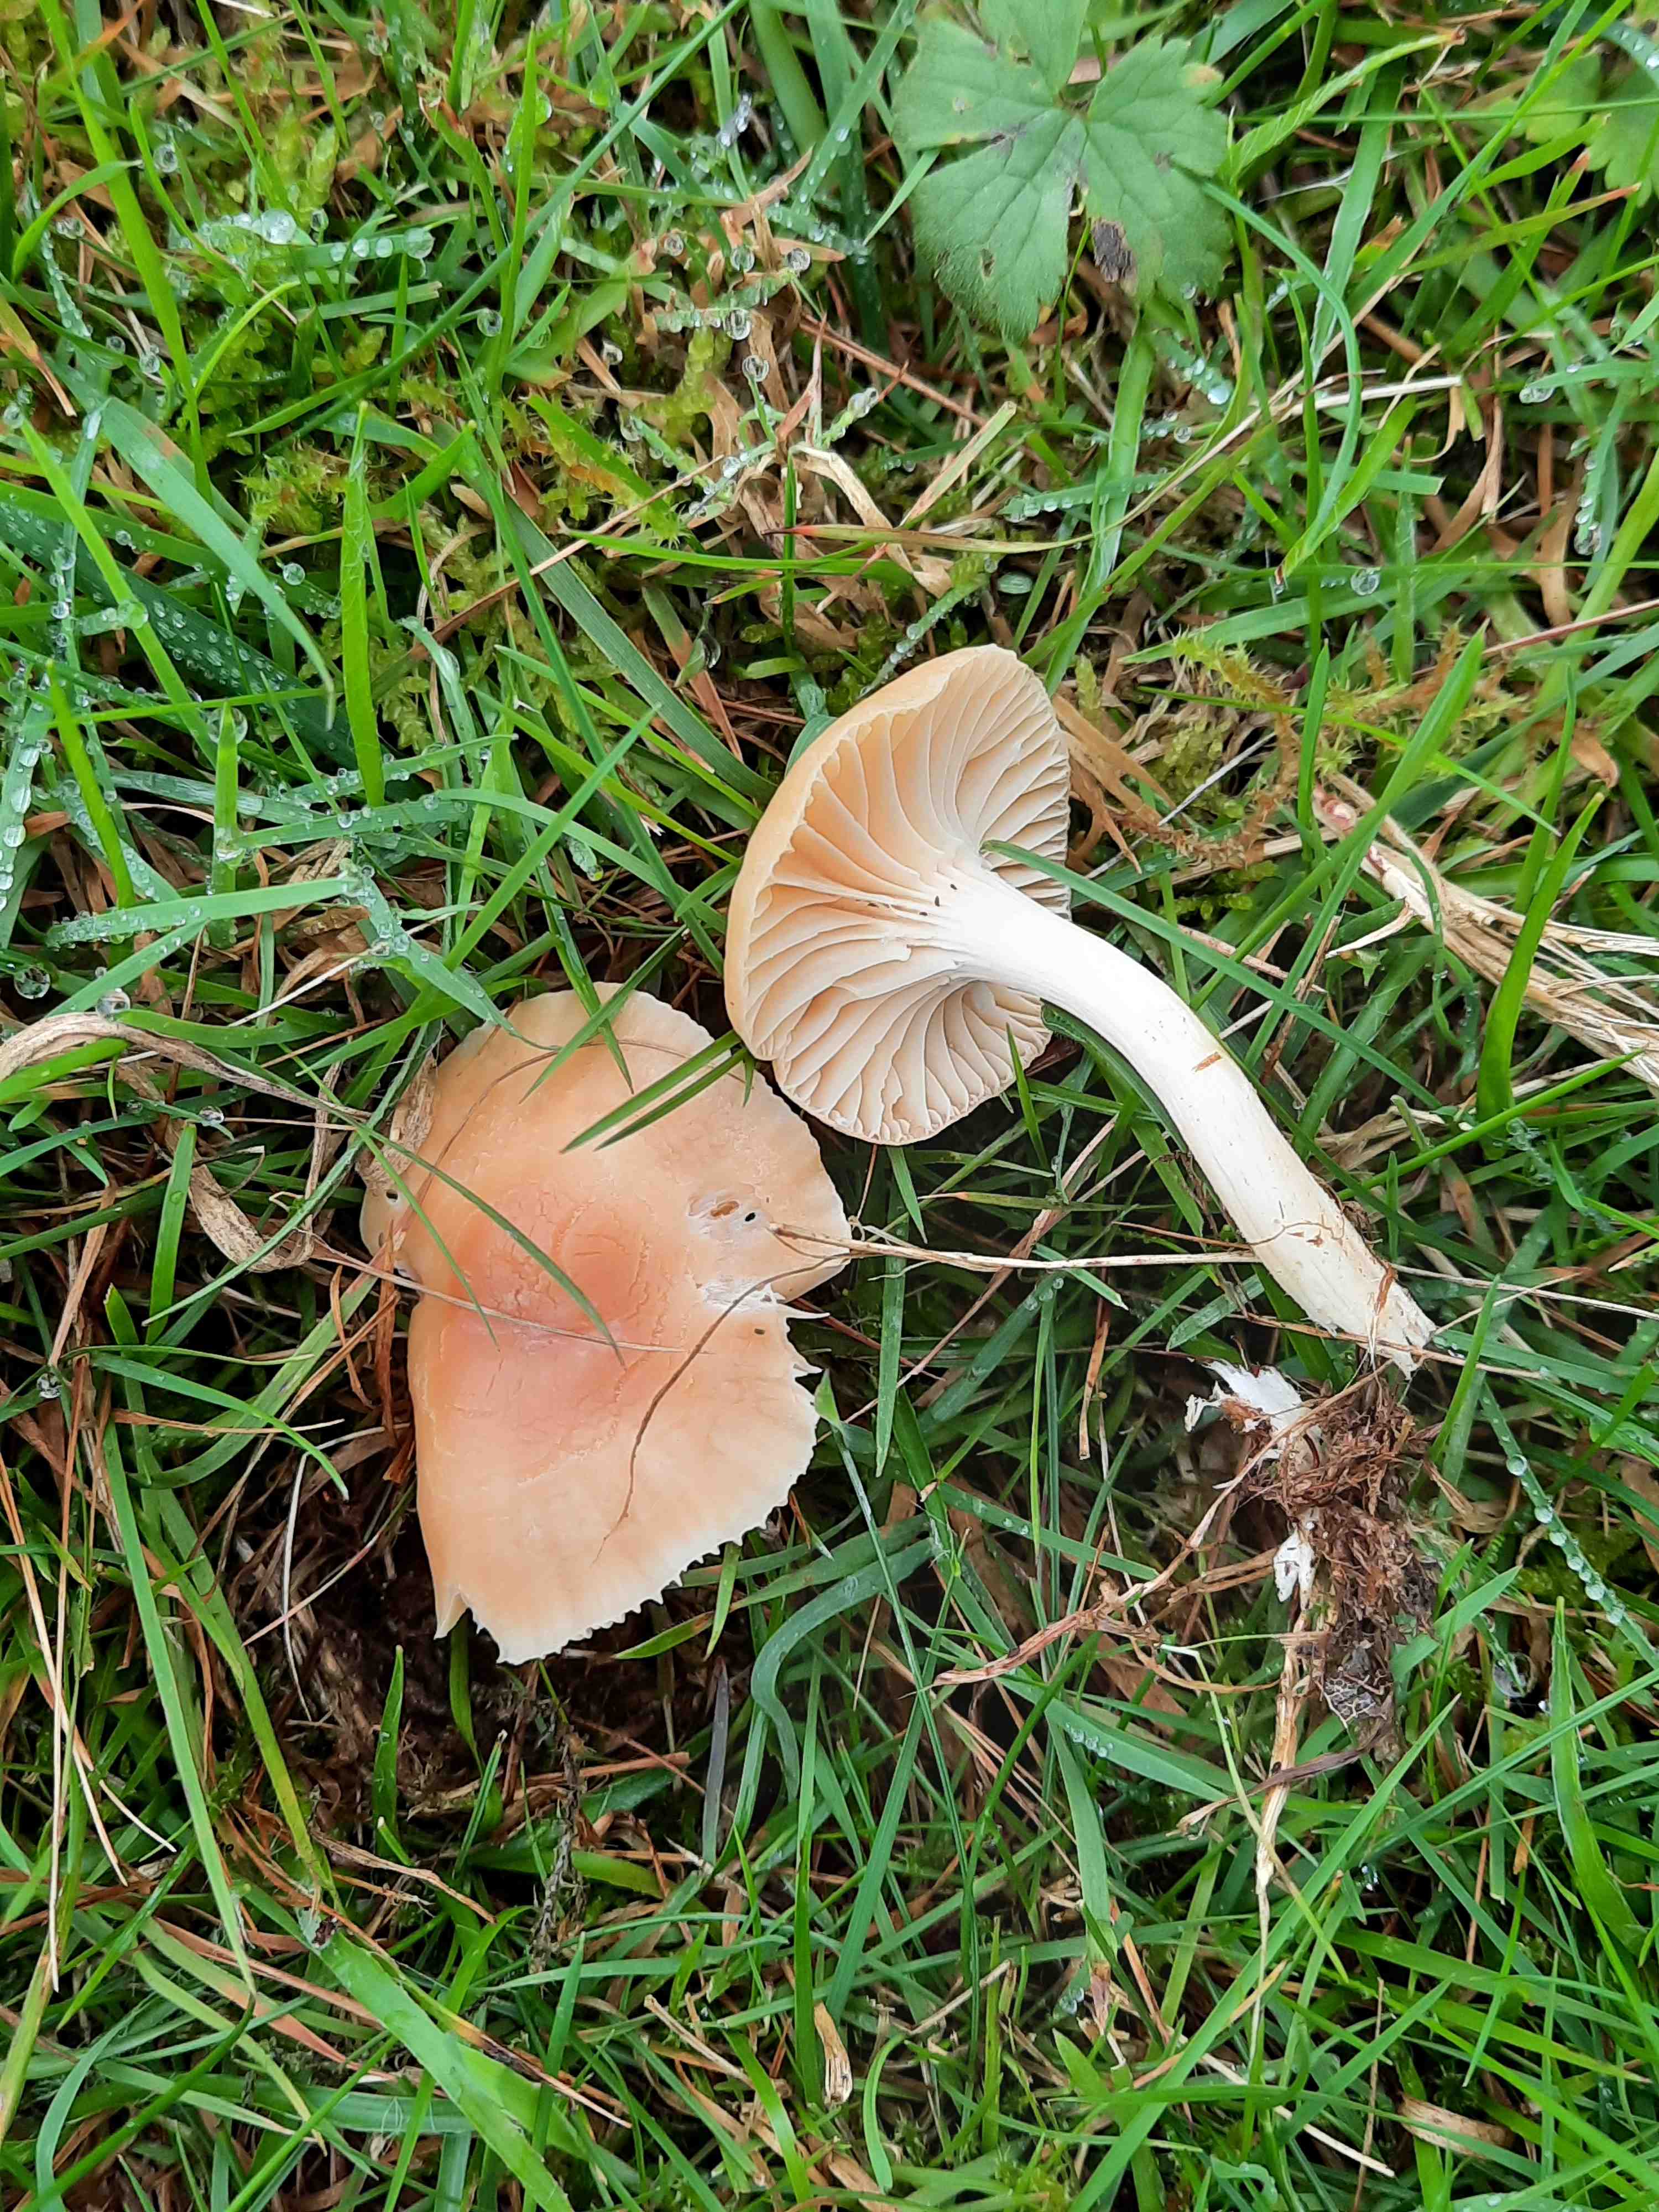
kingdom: Fungi
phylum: Basidiomycota
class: Agaricomycetes
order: Agaricales
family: Hygrophoraceae
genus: Cuphophyllus
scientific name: Cuphophyllus pratensis
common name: eng-vokshat
